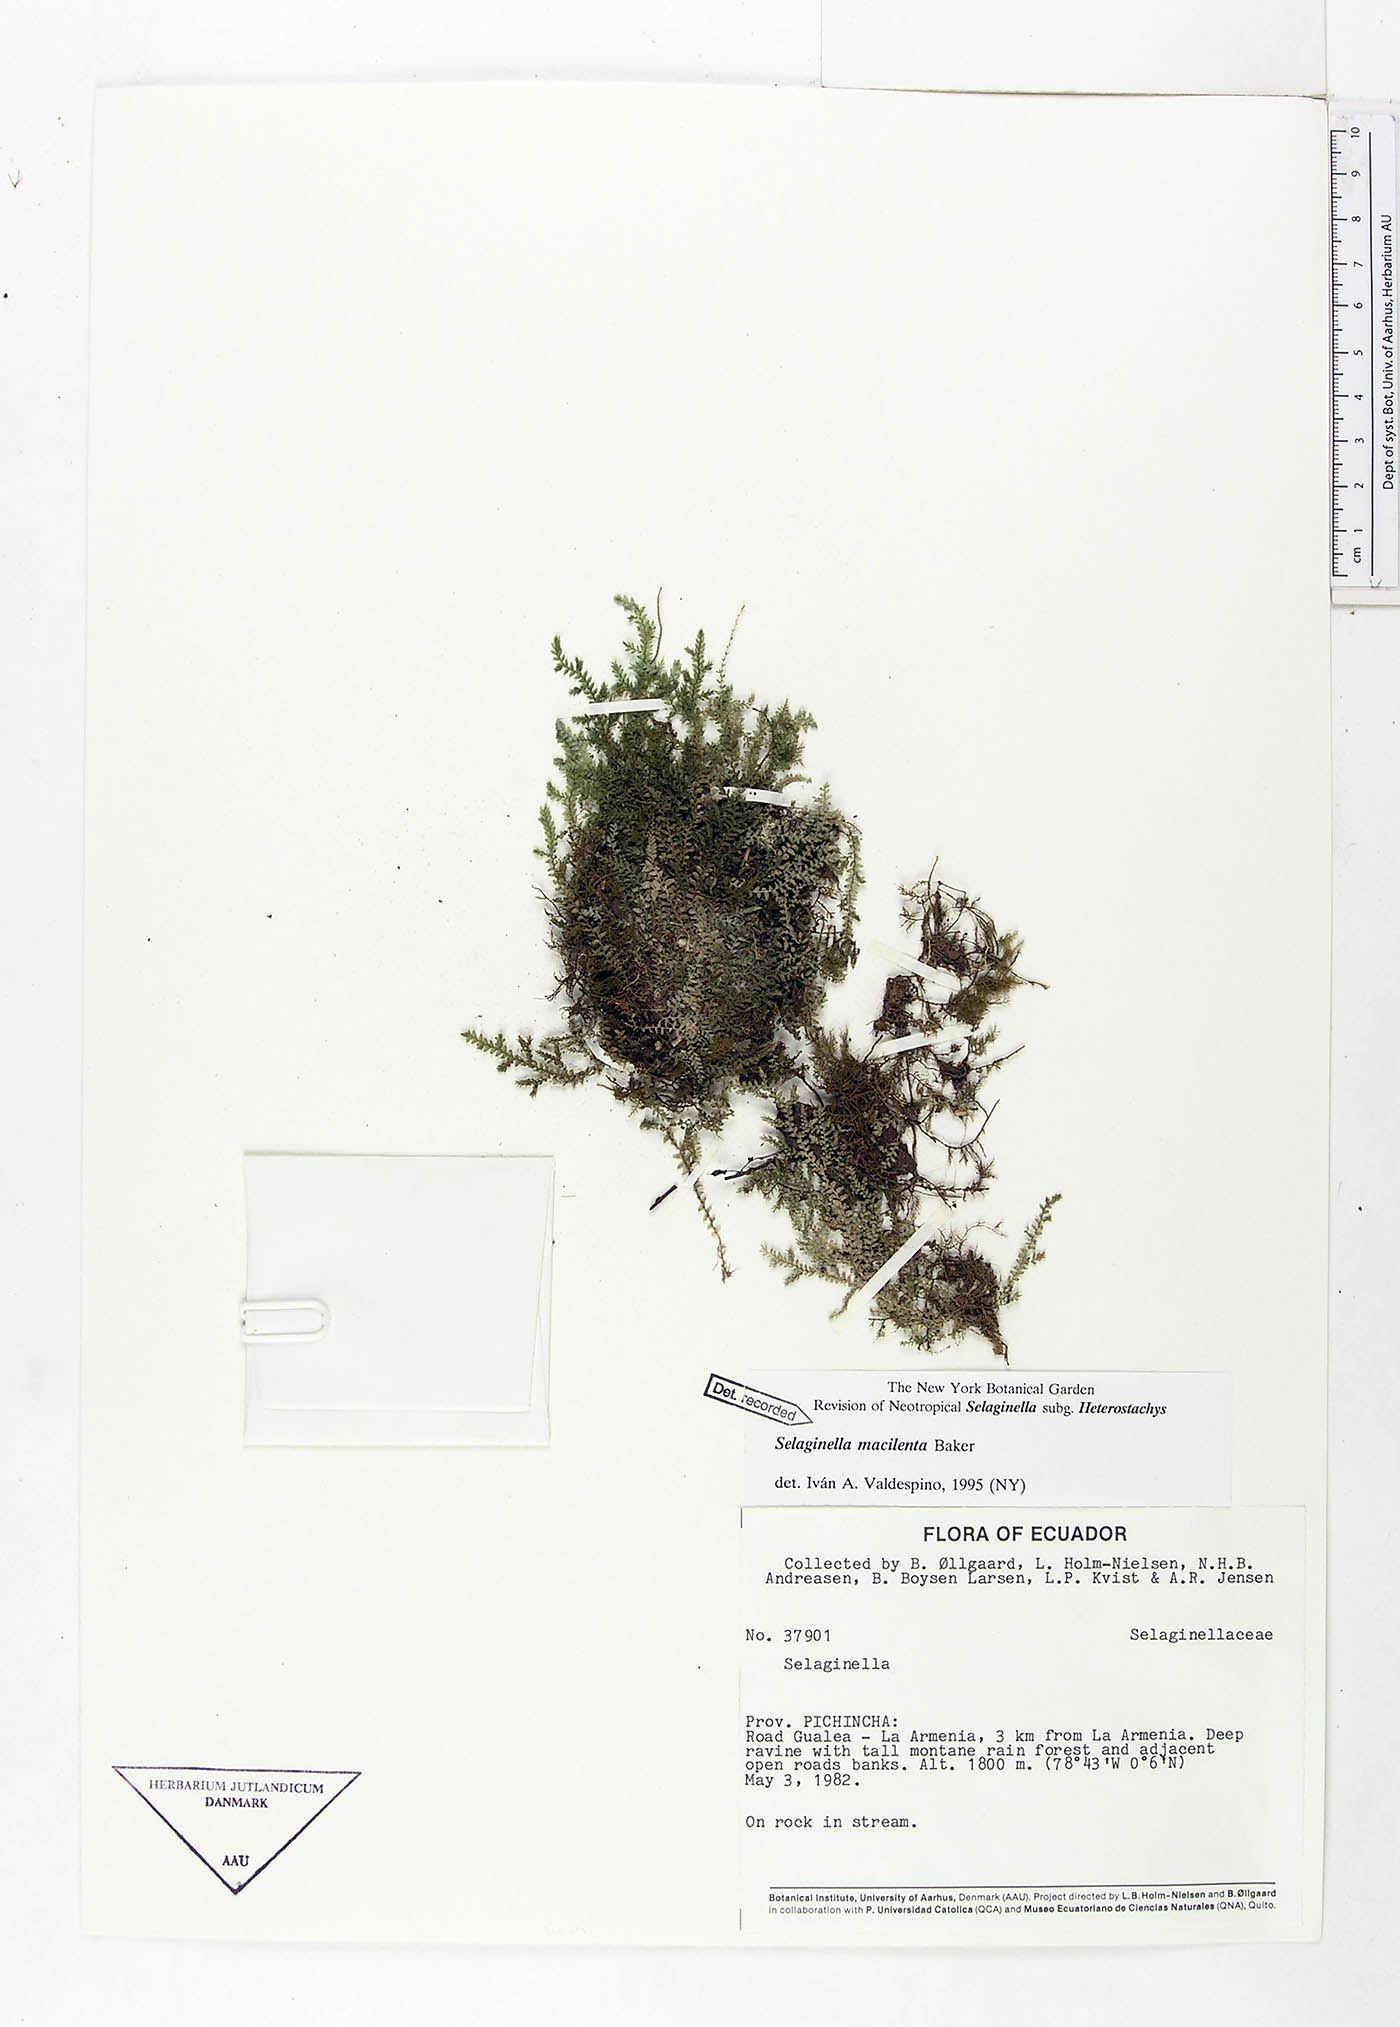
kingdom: Plantae
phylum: Tracheophyta
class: Lycopodiopsida
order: Selaginellales
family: Selaginellaceae
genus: Selaginella
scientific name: Selaginella macilenta
